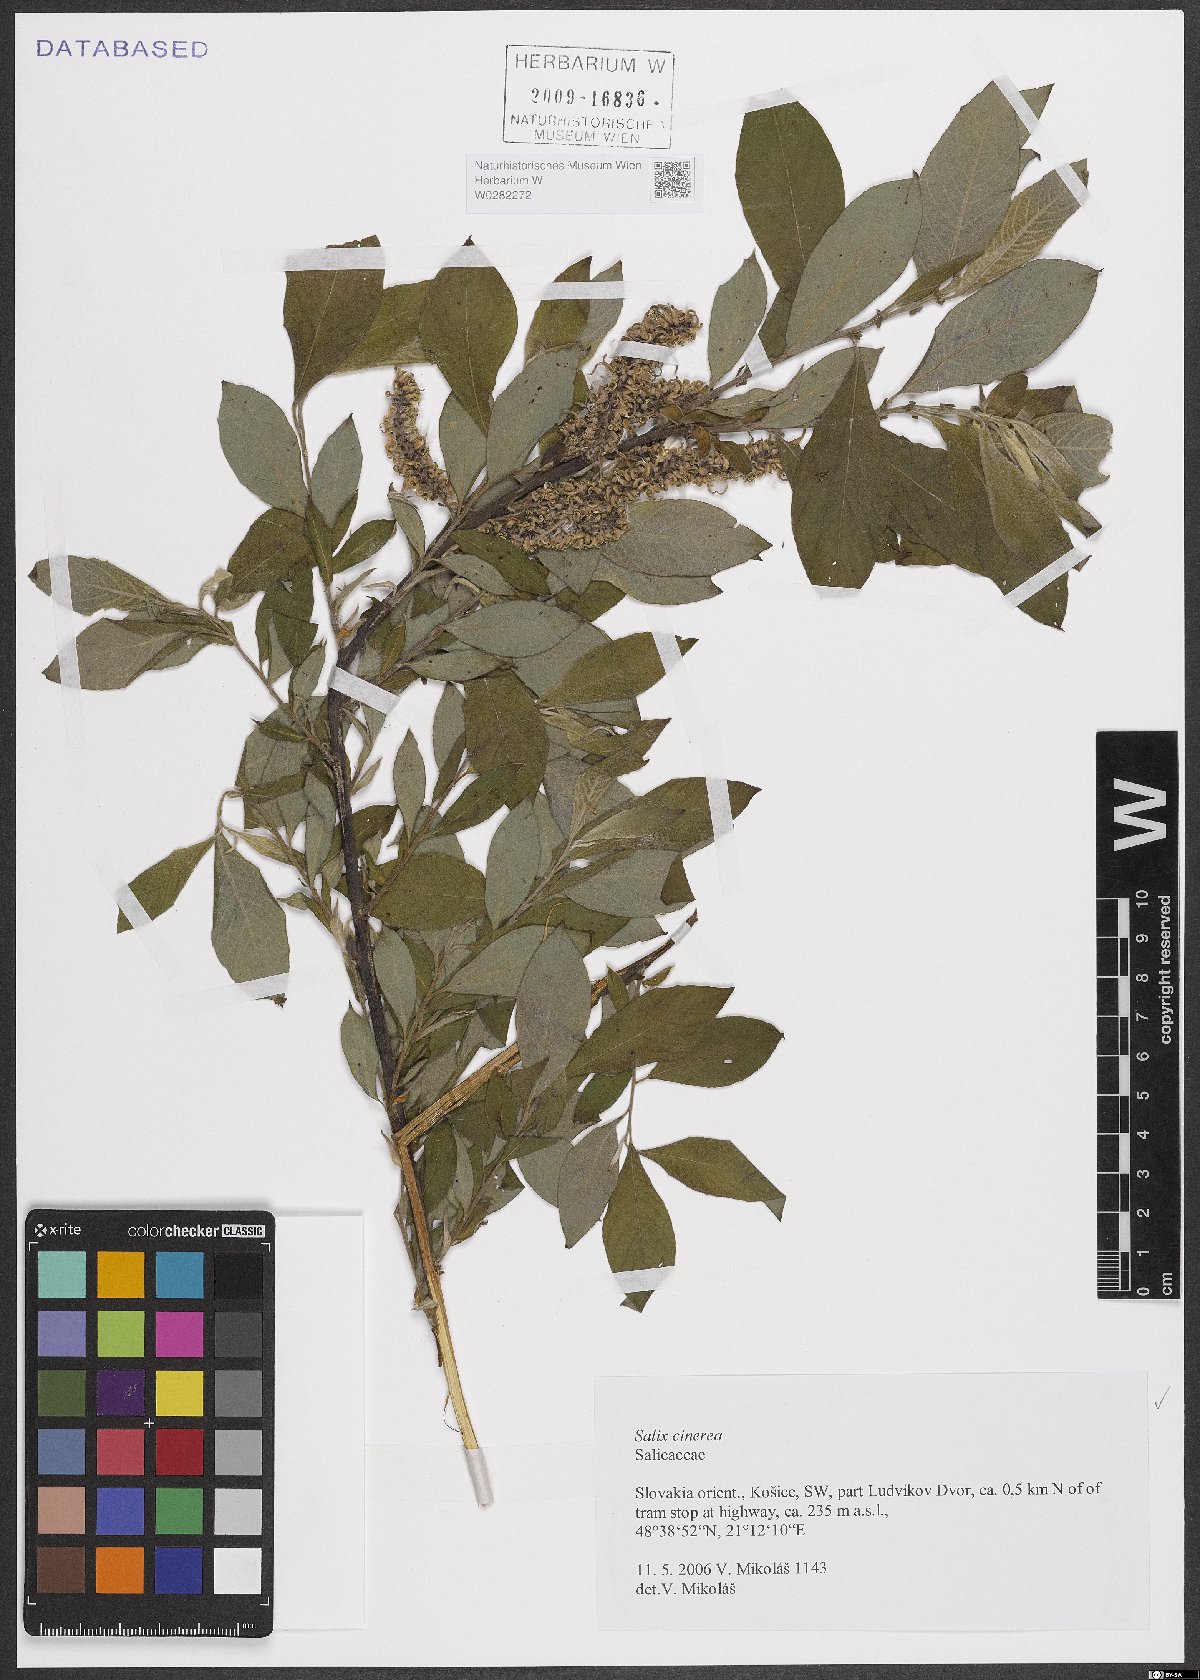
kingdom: Plantae
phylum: Tracheophyta
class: Magnoliopsida
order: Malpighiales
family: Salicaceae
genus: Salix
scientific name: Salix cinerea
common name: Common sallow
